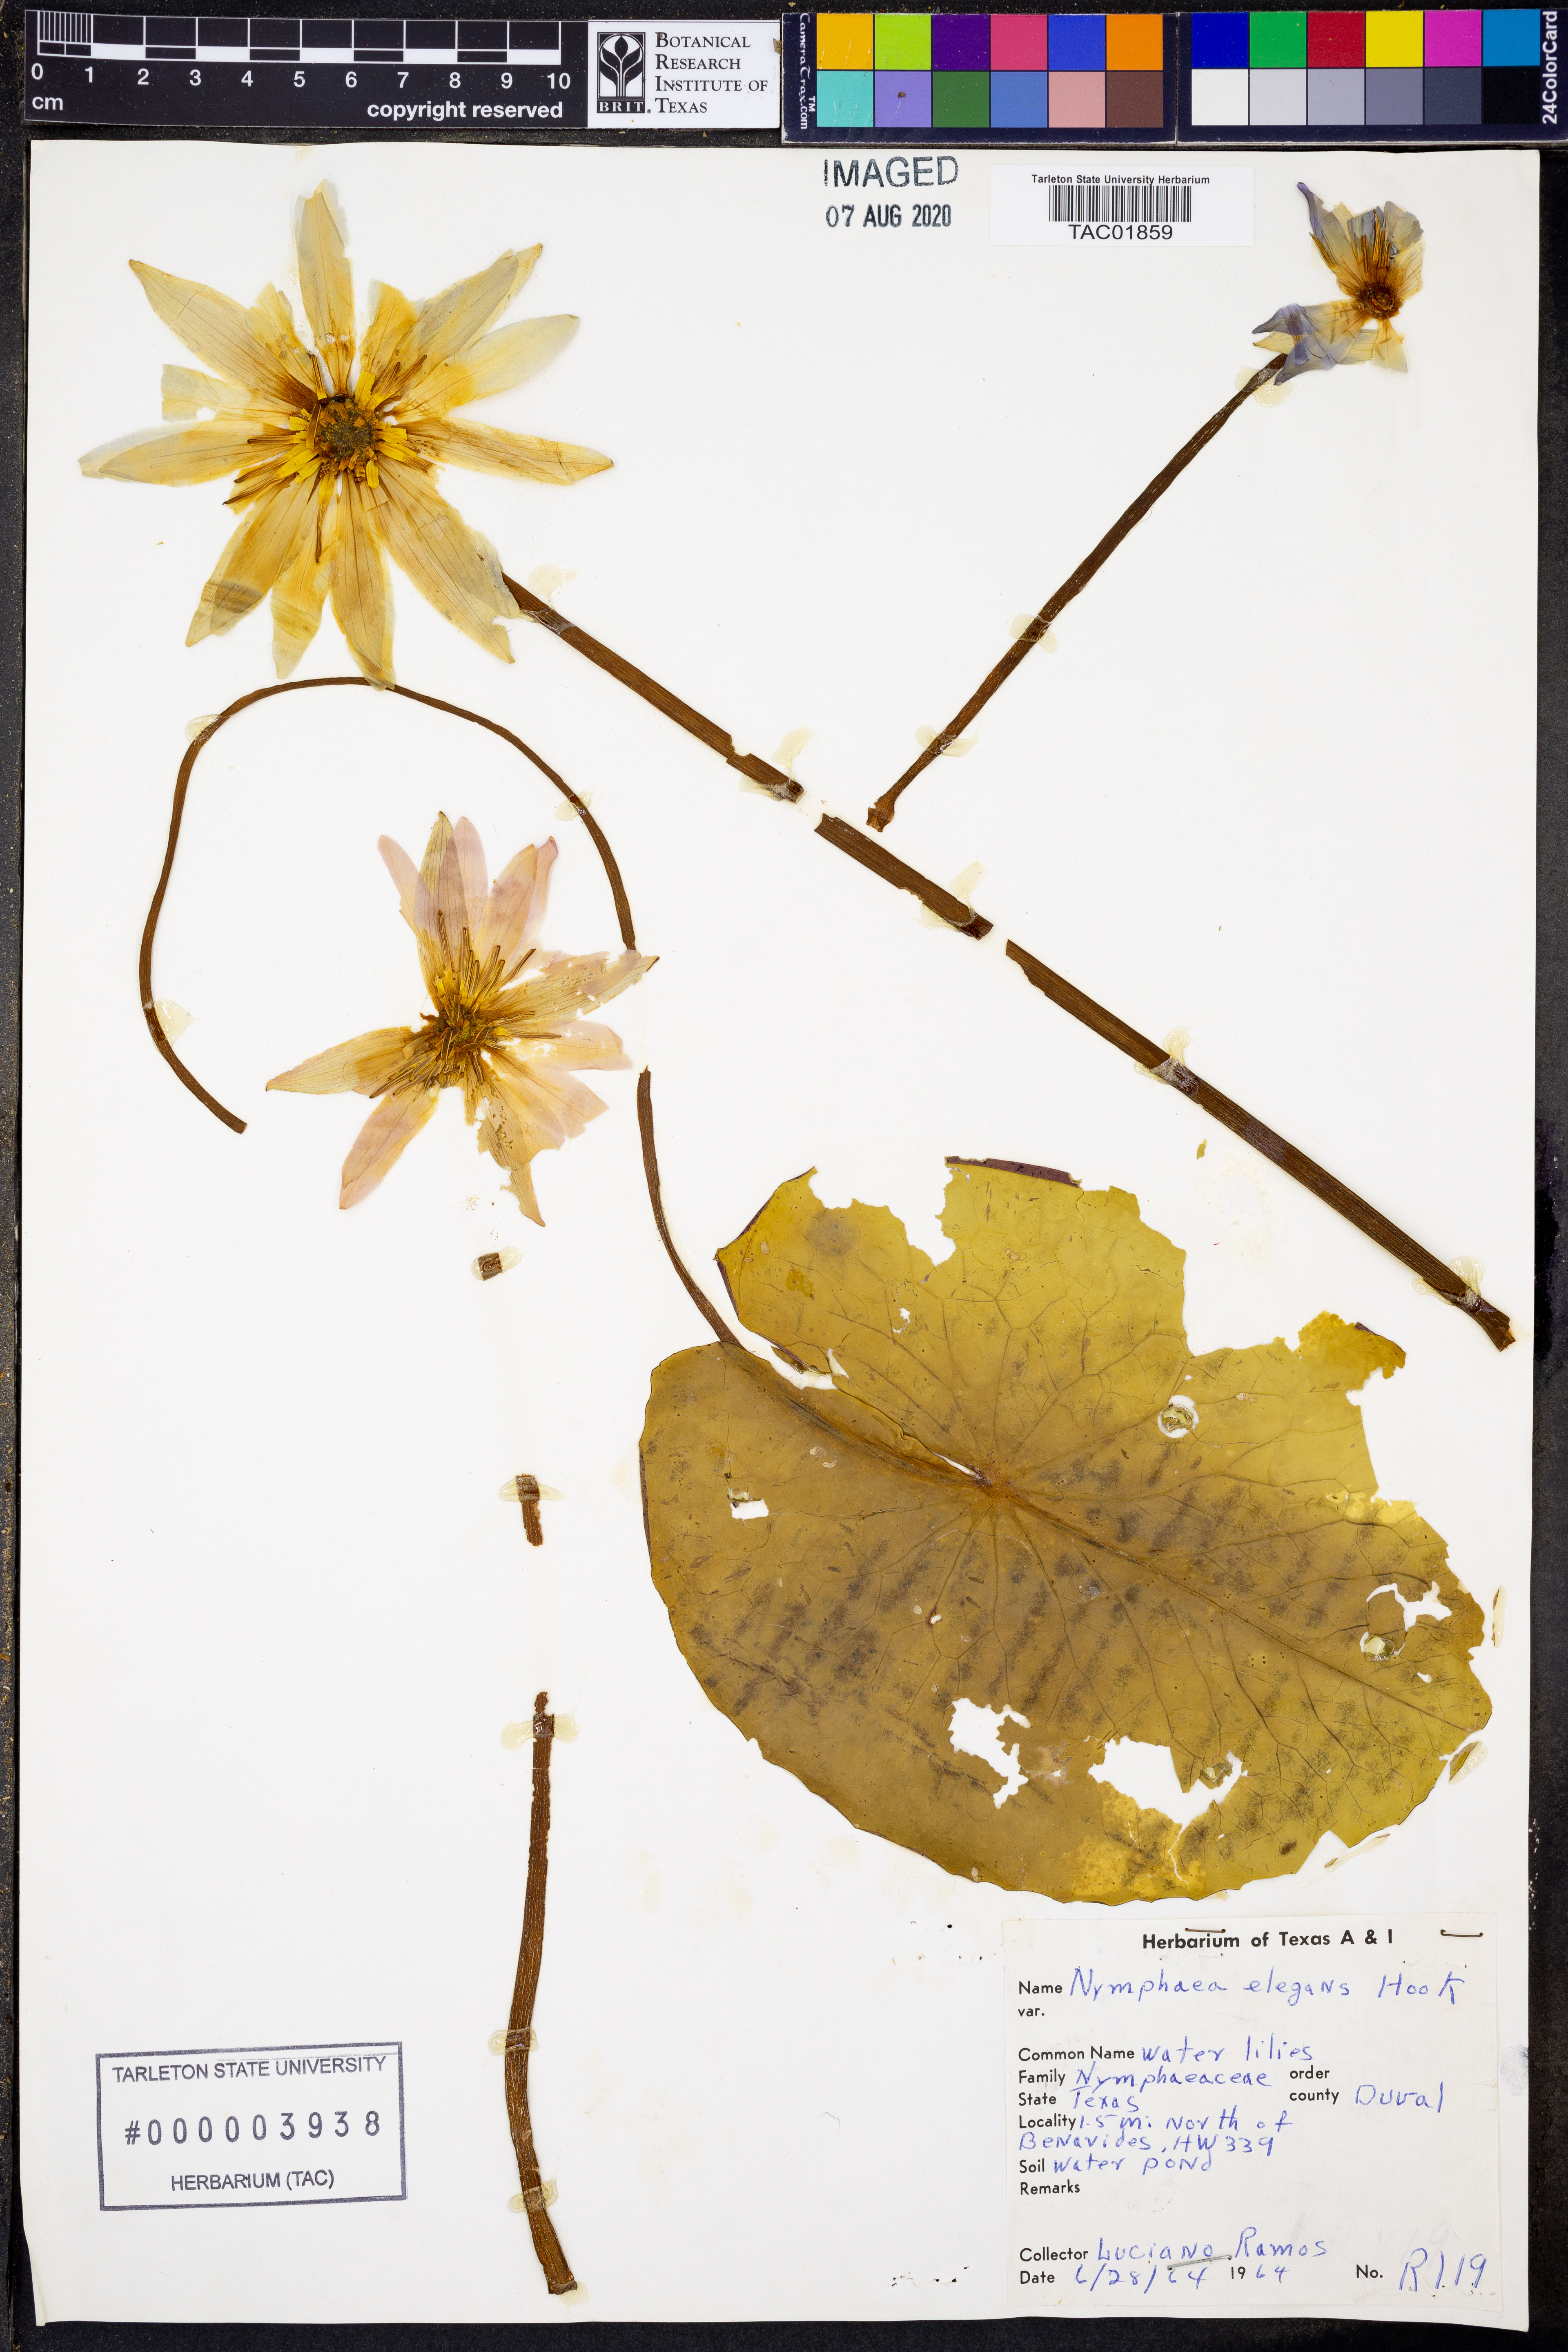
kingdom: Plantae
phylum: Tracheophyta
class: Magnoliopsida
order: Nymphaeales
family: Nymphaeaceae
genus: Nymphaea
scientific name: Nymphaea elegans
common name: Blue water-lily
